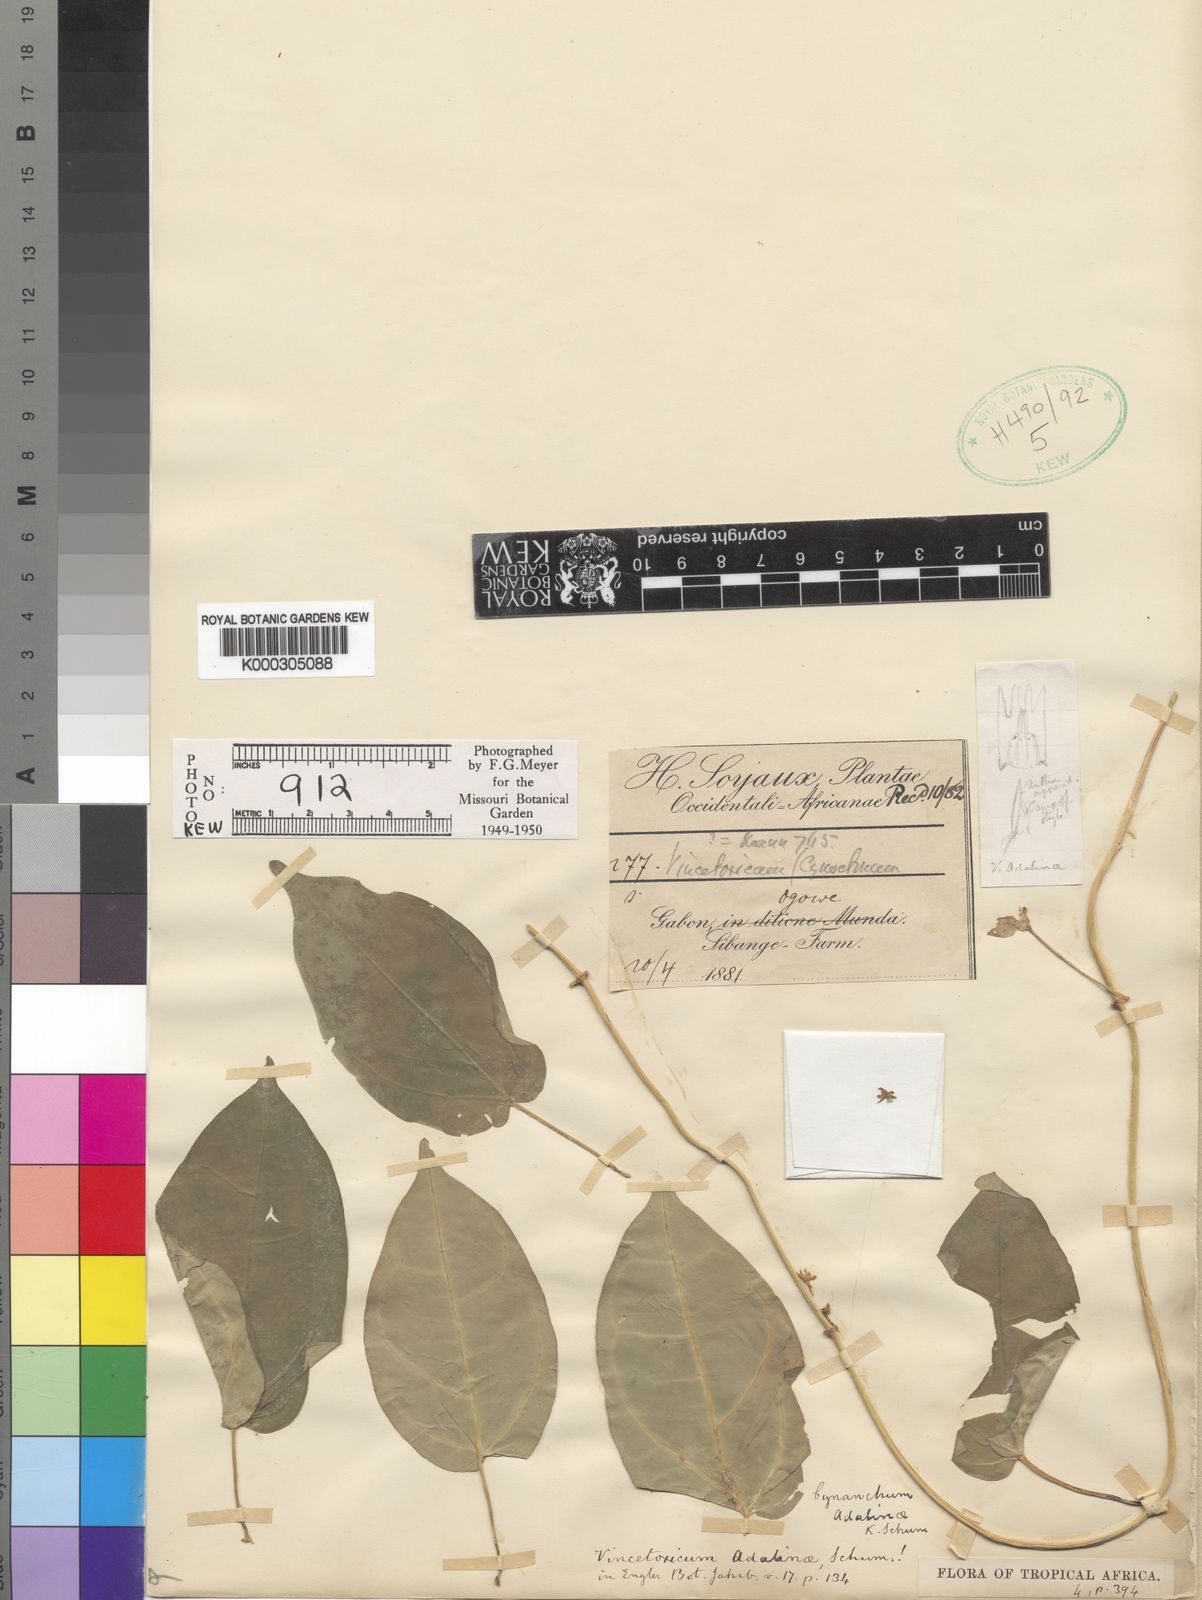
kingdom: Plantae
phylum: Tracheophyta
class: Magnoliopsida
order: Gentianales
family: Apocynaceae
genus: Cynanchum
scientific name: Cynanchum adalinae
